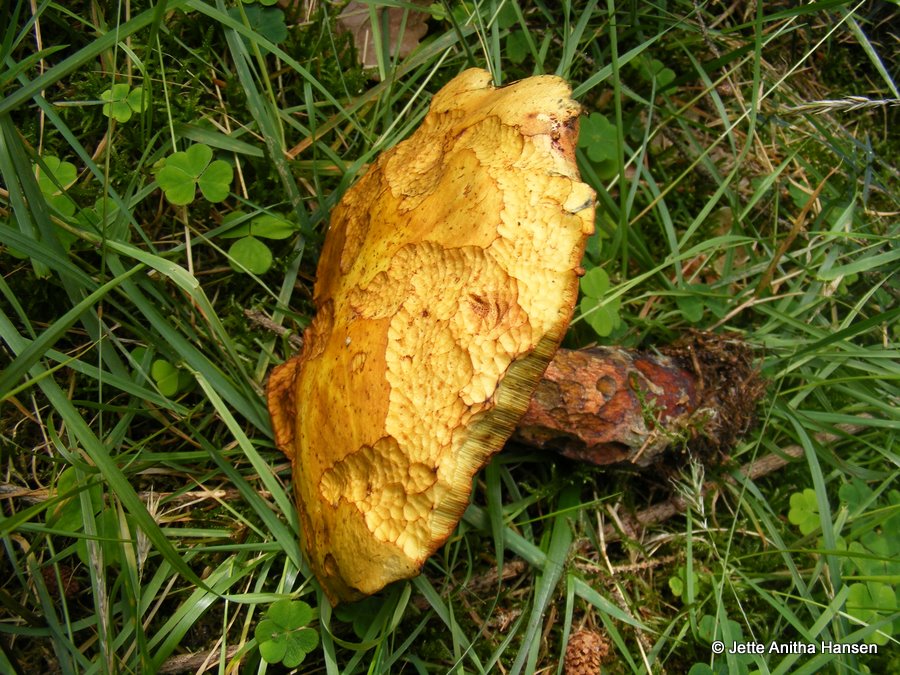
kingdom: Fungi
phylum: Basidiomycota
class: Agaricomycetes
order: Boletales
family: Boletaceae
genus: Neoboletus
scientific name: Neoboletus erythropus
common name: punktstokket indigorørhat
